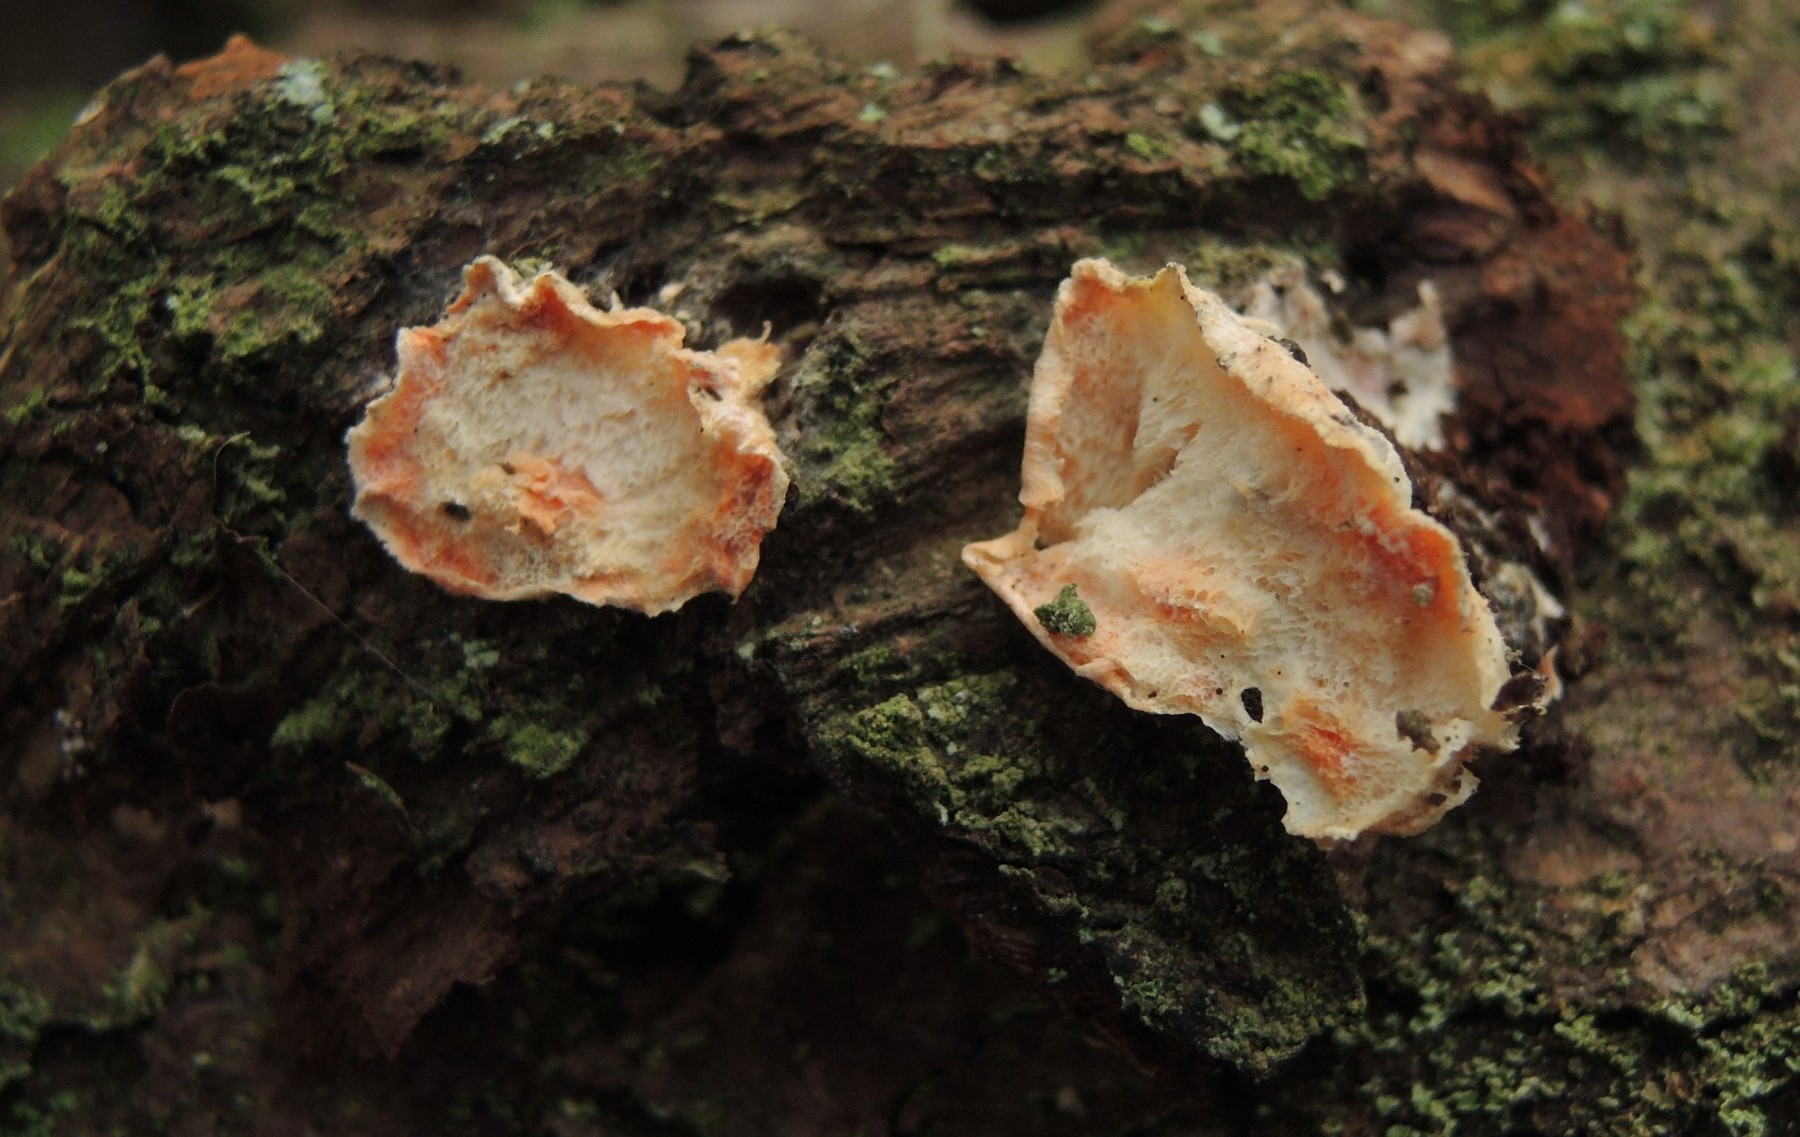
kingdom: Fungi
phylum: Basidiomycota
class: Agaricomycetes
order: Polyporales
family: Incrustoporiaceae
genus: Skeletocutis
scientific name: Skeletocutis amorpha
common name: orange krystalporesvamp
